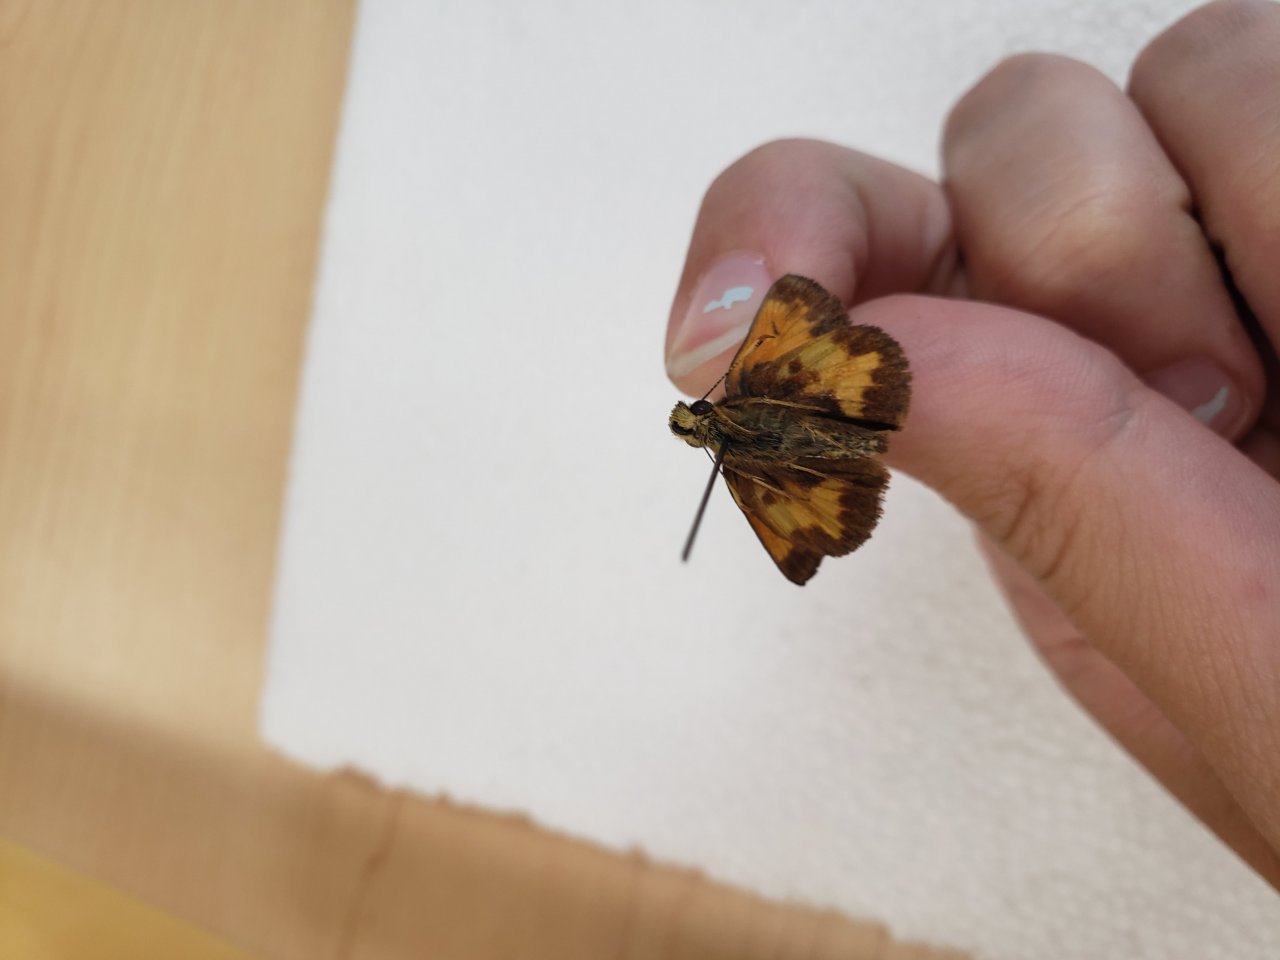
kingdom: Animalia
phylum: Arthropoda
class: Insecta
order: Lepidoptera
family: Hesperiidae
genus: Lon
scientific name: Lon hobomok
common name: Hobomok Skipper
